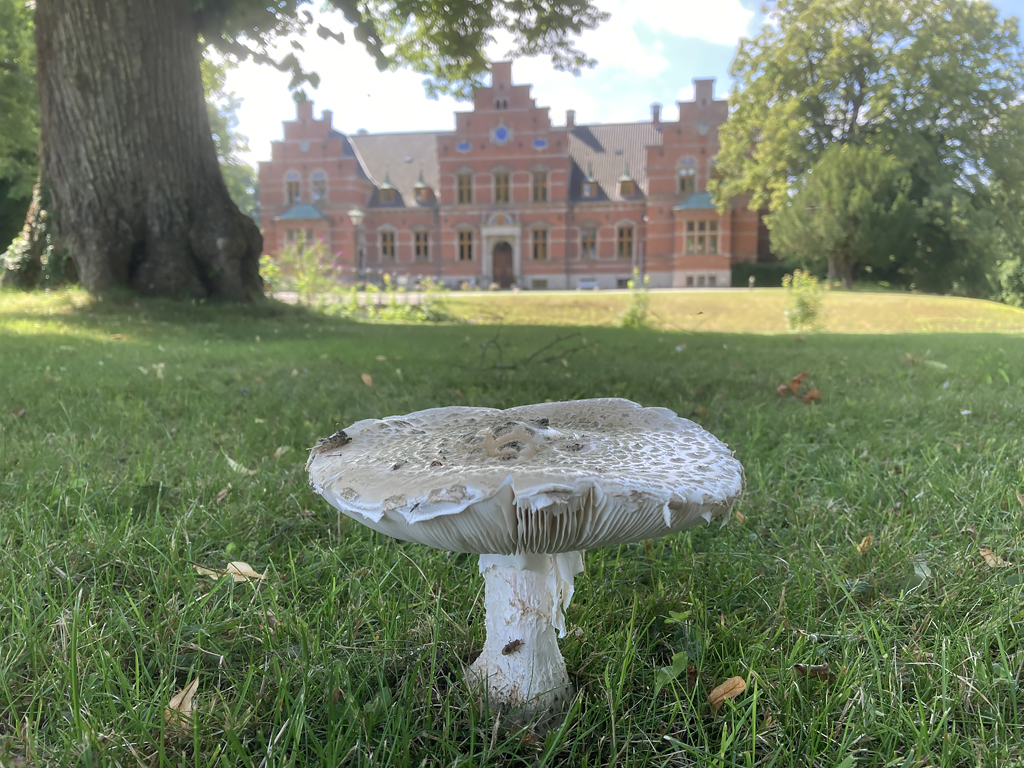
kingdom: Fungi
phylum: Basidiomycota
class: Agaricomycetes
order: Agaricales
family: Amanitaceae
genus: Amanita
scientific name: Amanita
